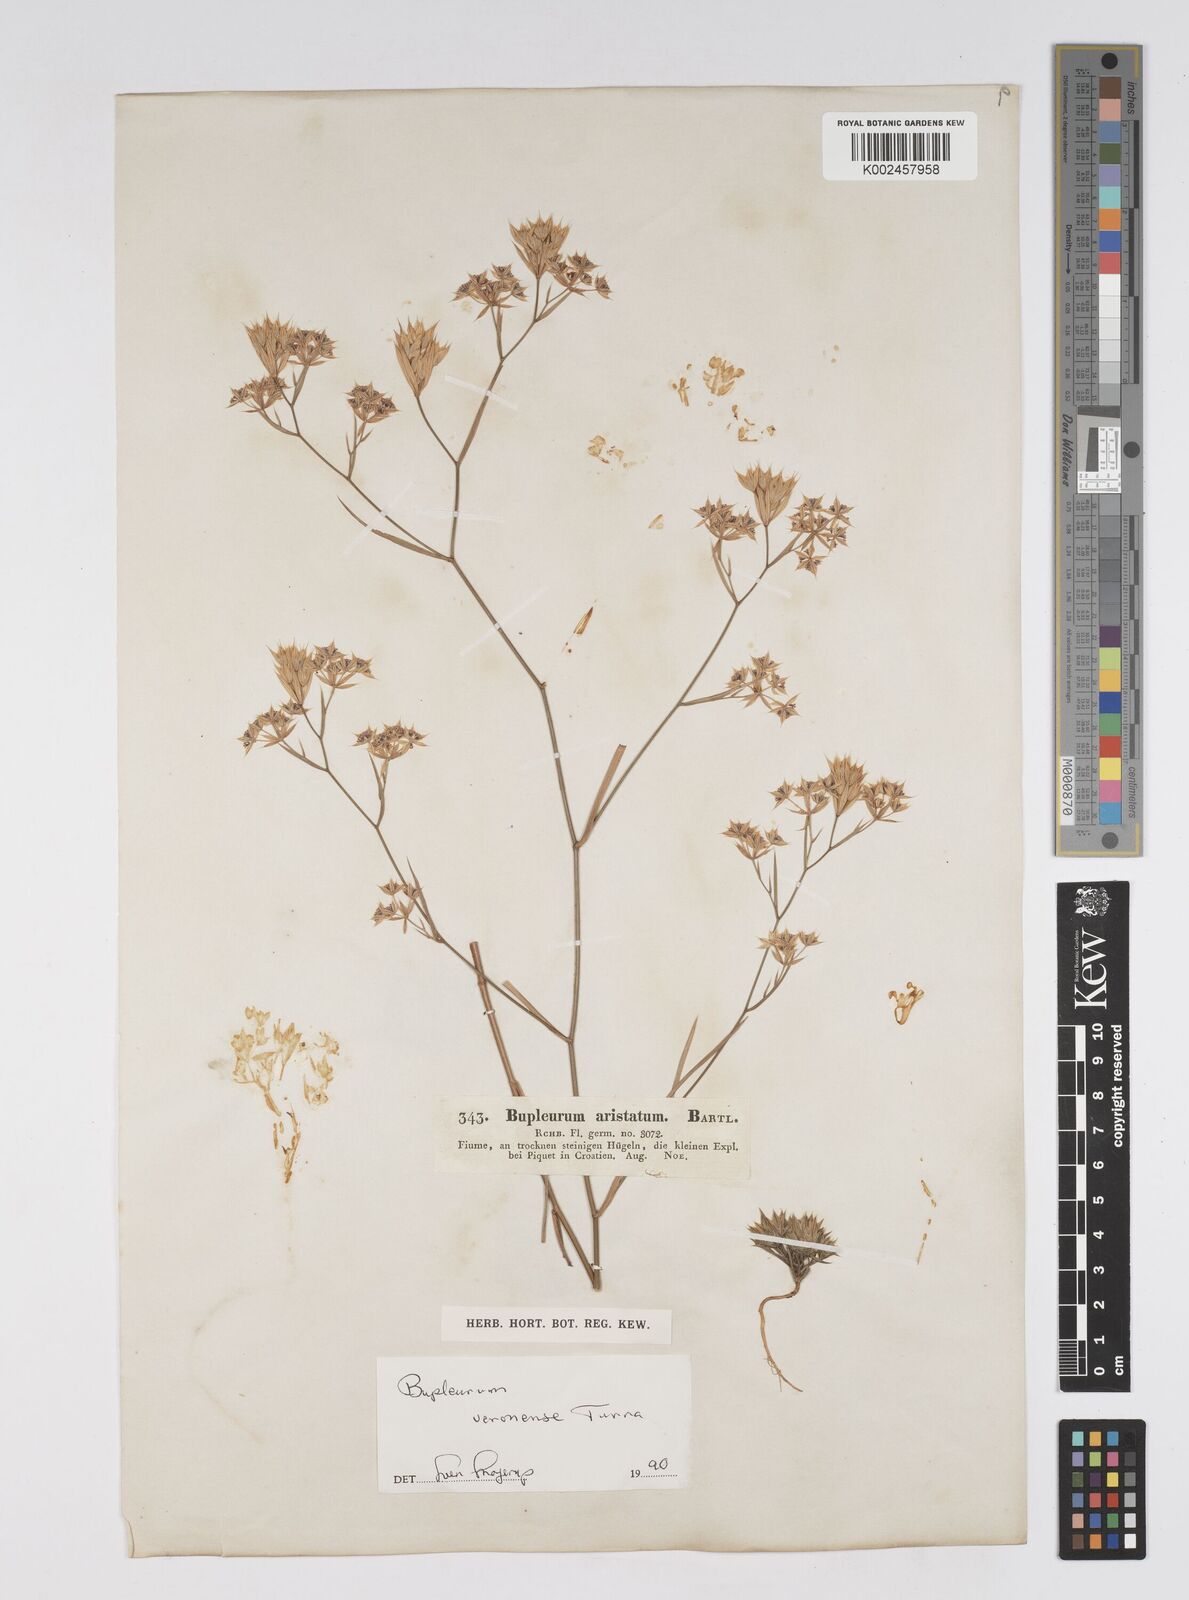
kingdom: Plantae
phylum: Tracheophyta
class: Magnoliopsida
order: Apiales
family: Apiaceae
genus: Bupleurum
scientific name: Bupleurum glumaceum
